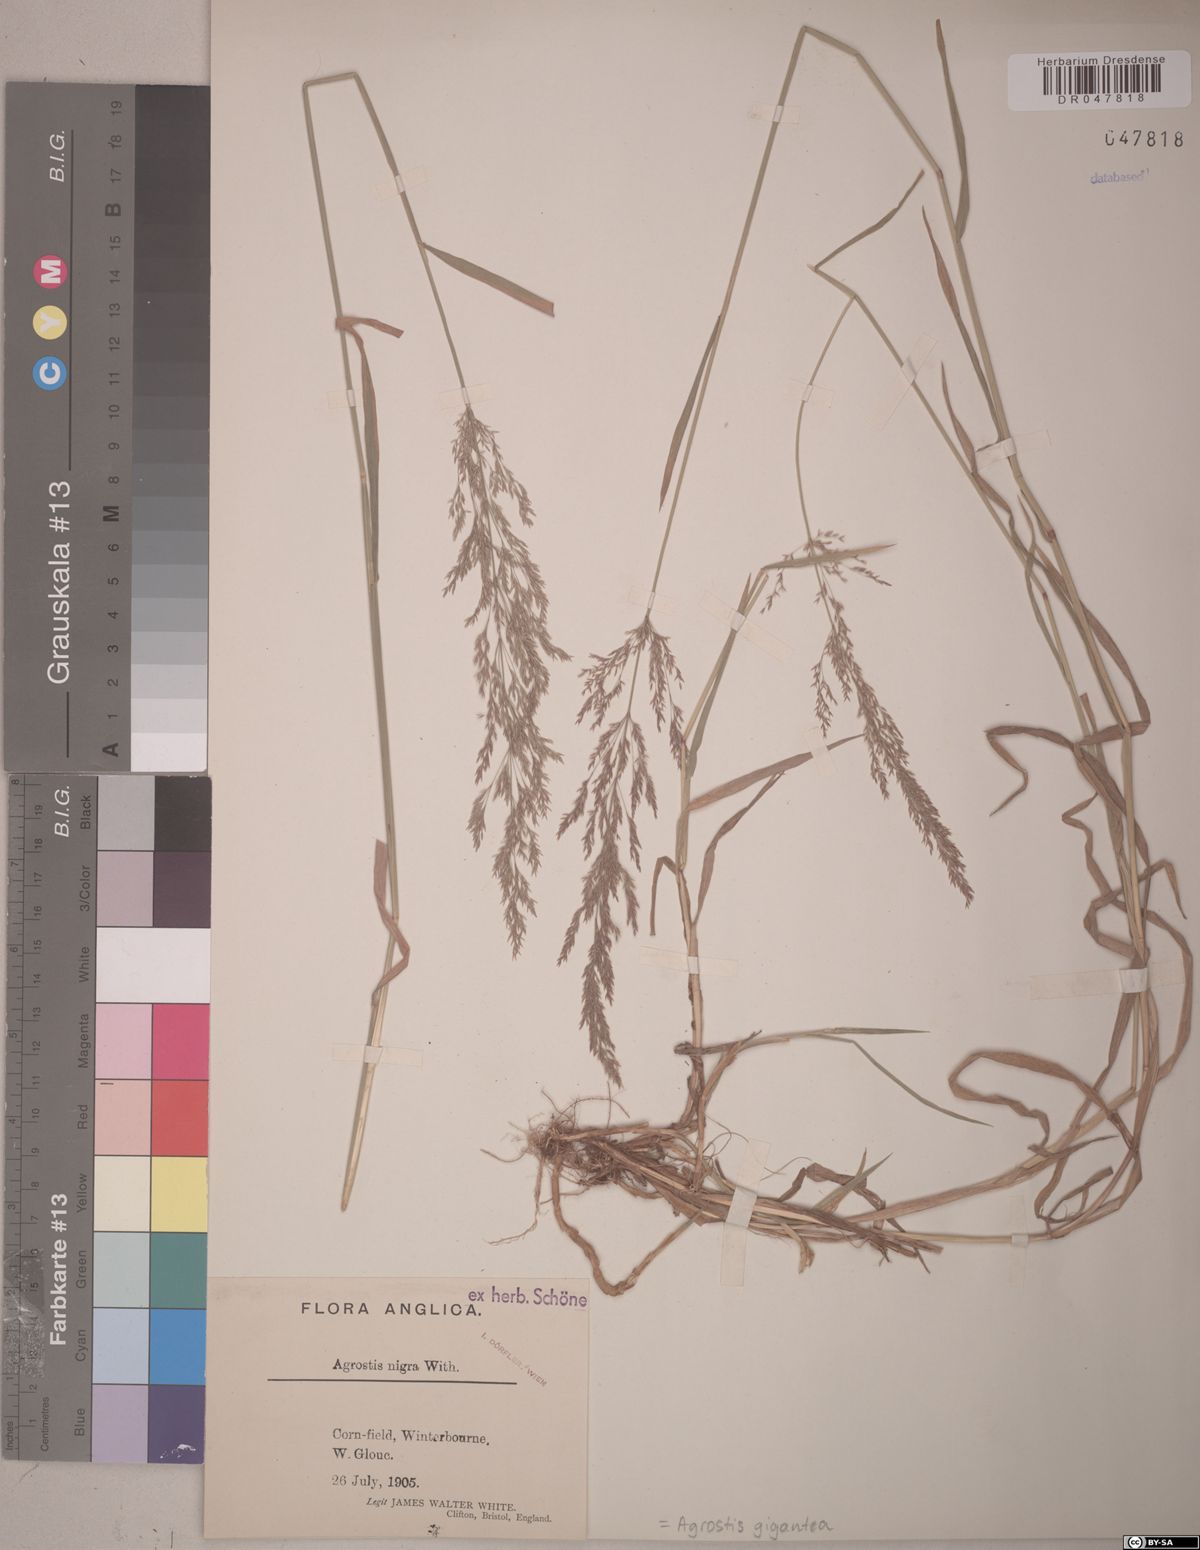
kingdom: Plantae
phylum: Tracheophyta
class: Liliopsida
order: Poales
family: Poaceae
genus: Agrostis
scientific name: Agrostis gigantea
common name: Black bent
